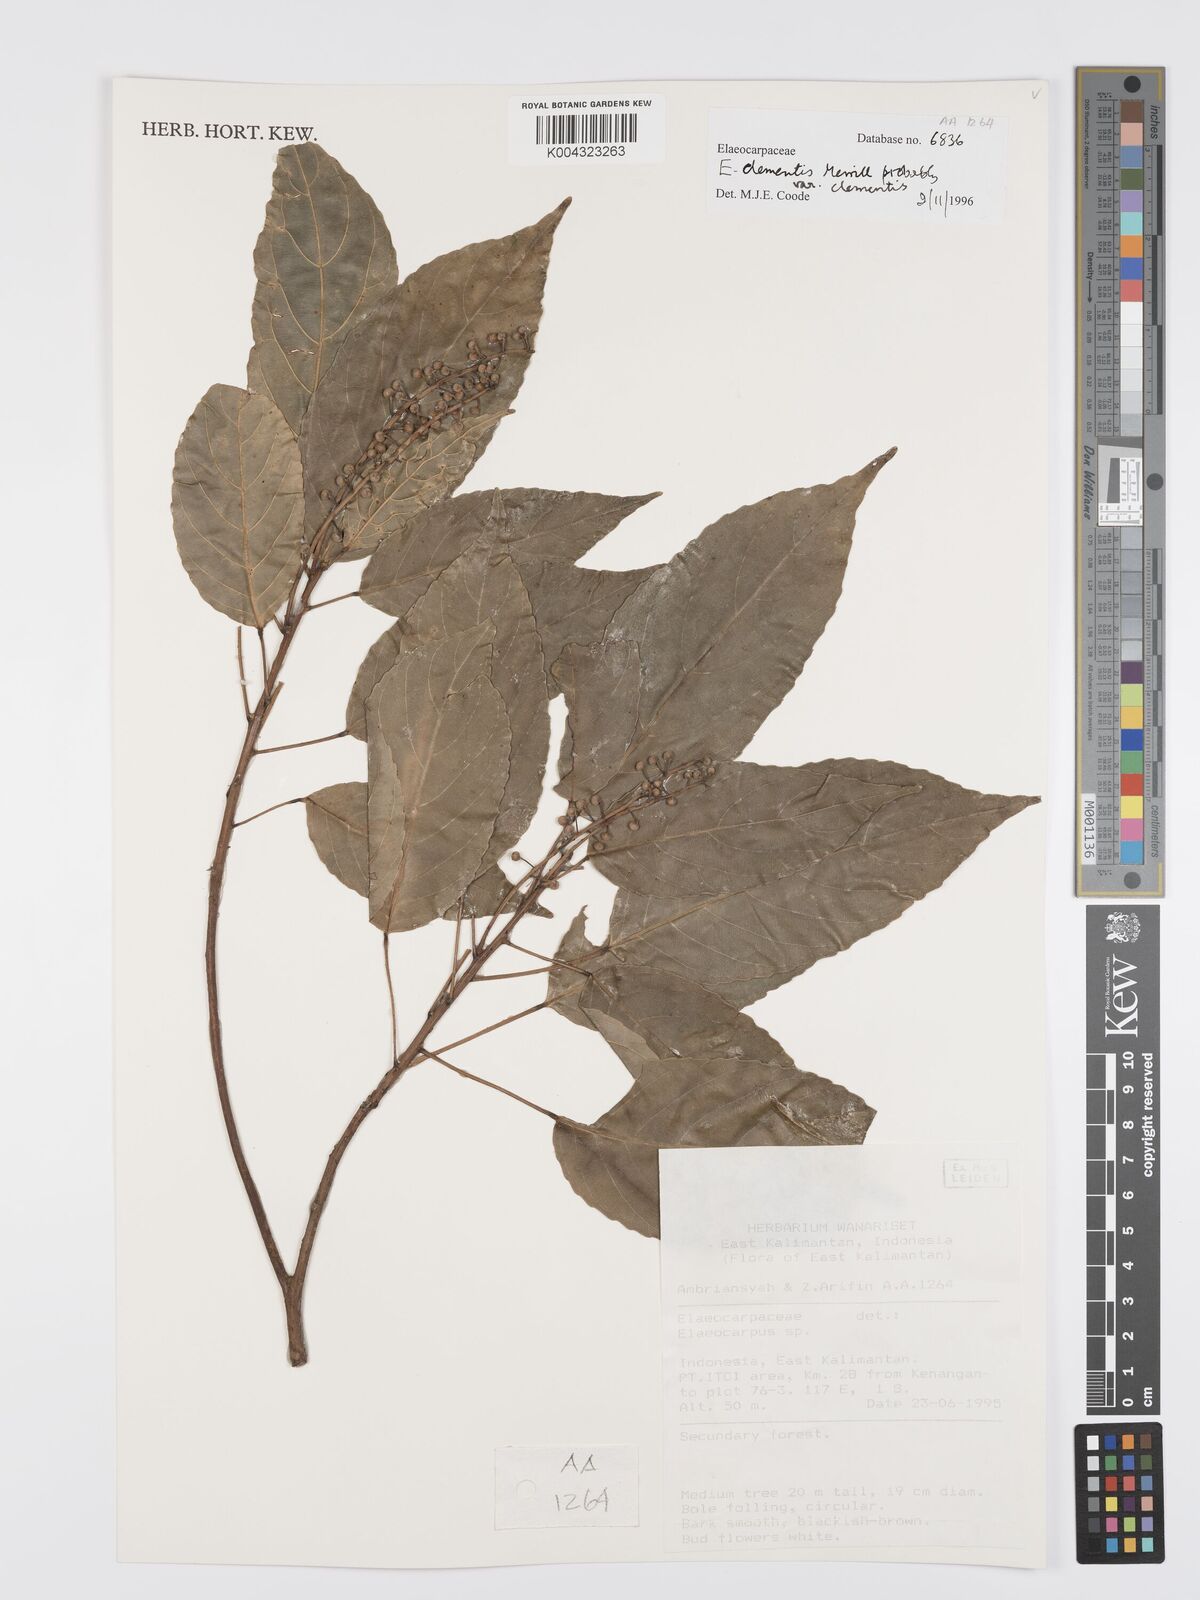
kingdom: Plantae
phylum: Tracheophyta
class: Magnoliopsida
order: Oxalidales
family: Elaeocarpaceae
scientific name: Elaeocarpaceae
